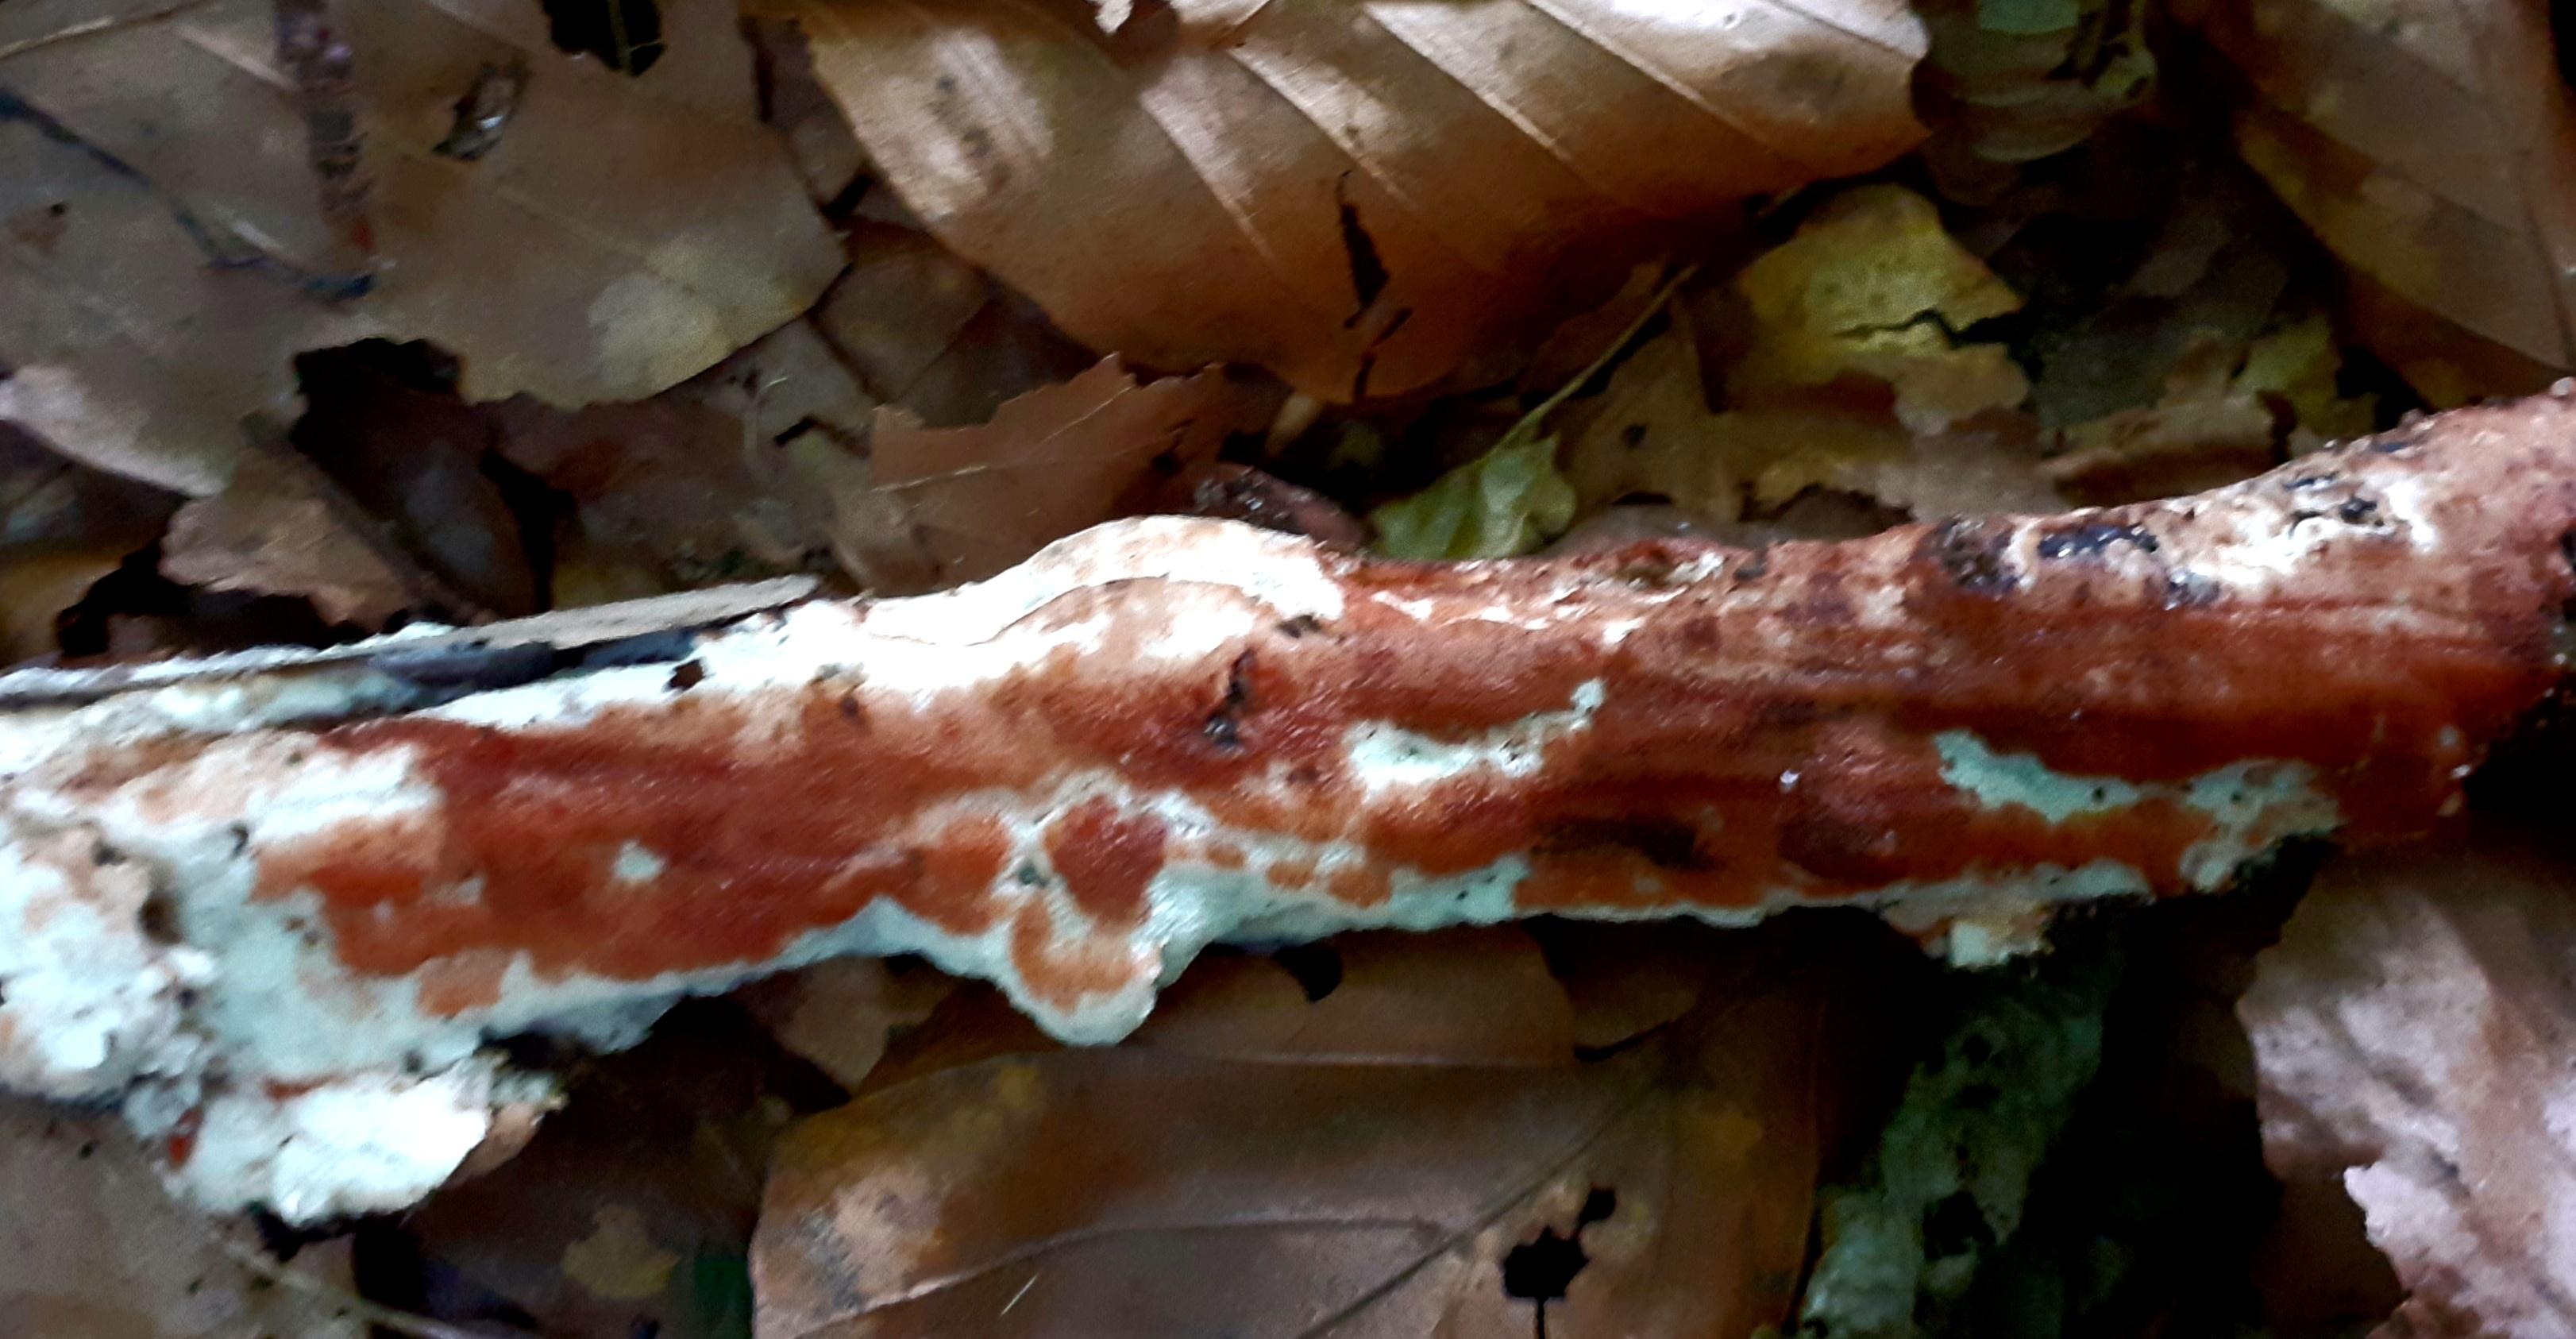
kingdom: Fungi
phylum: Basidiomycota
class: Agaricomycetes
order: Polyporales
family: Meripilaceae
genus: Rigidoporus
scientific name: Rigidoporus sanguinolentus
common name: blod-skorpeporesvamp
